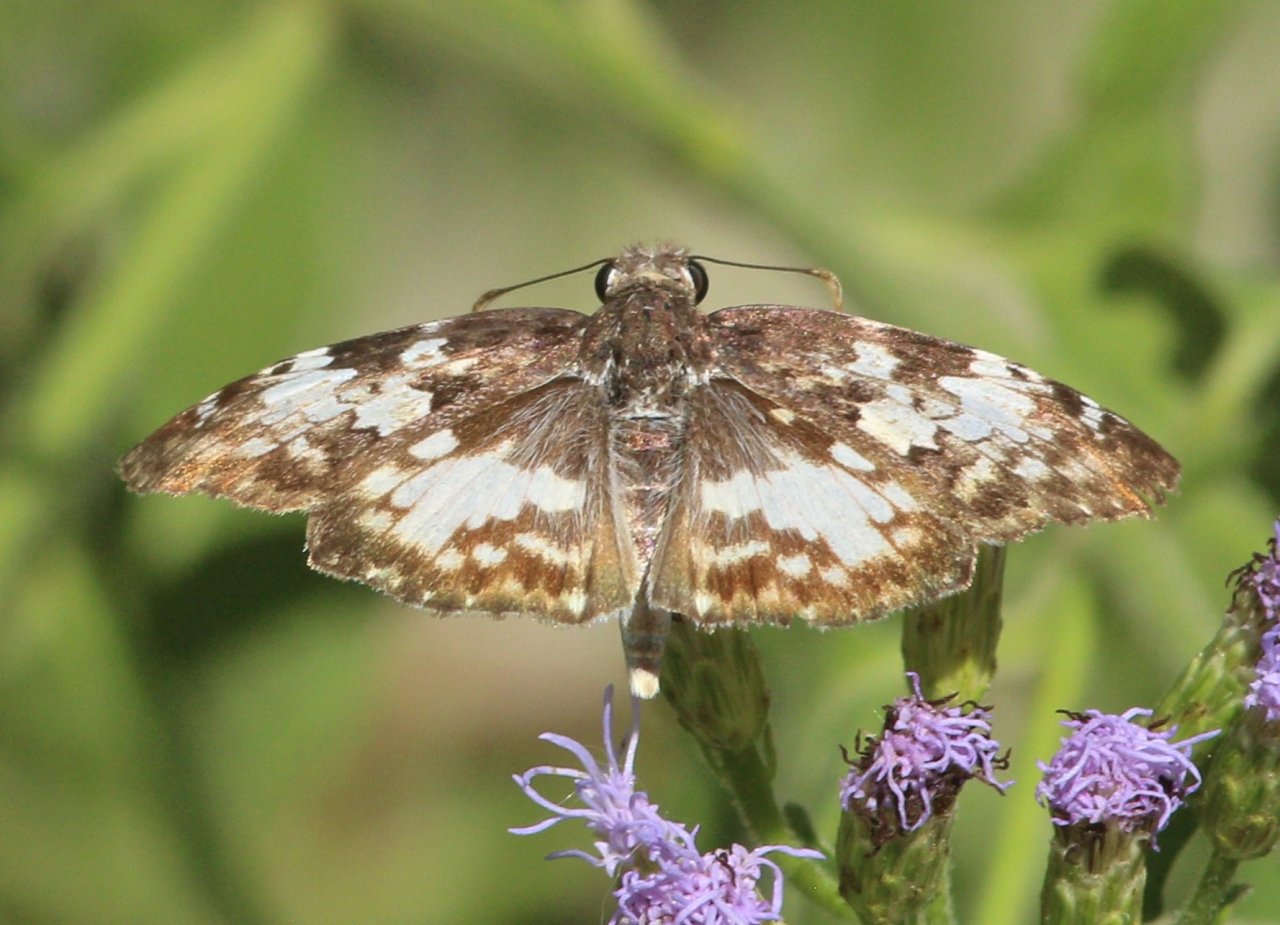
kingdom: Animalia
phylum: Arthropoda
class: Insecta
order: Lepidoptera
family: Hesperiidae
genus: Chiomara
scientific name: Chiomara asychis
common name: White-patched Skipper
